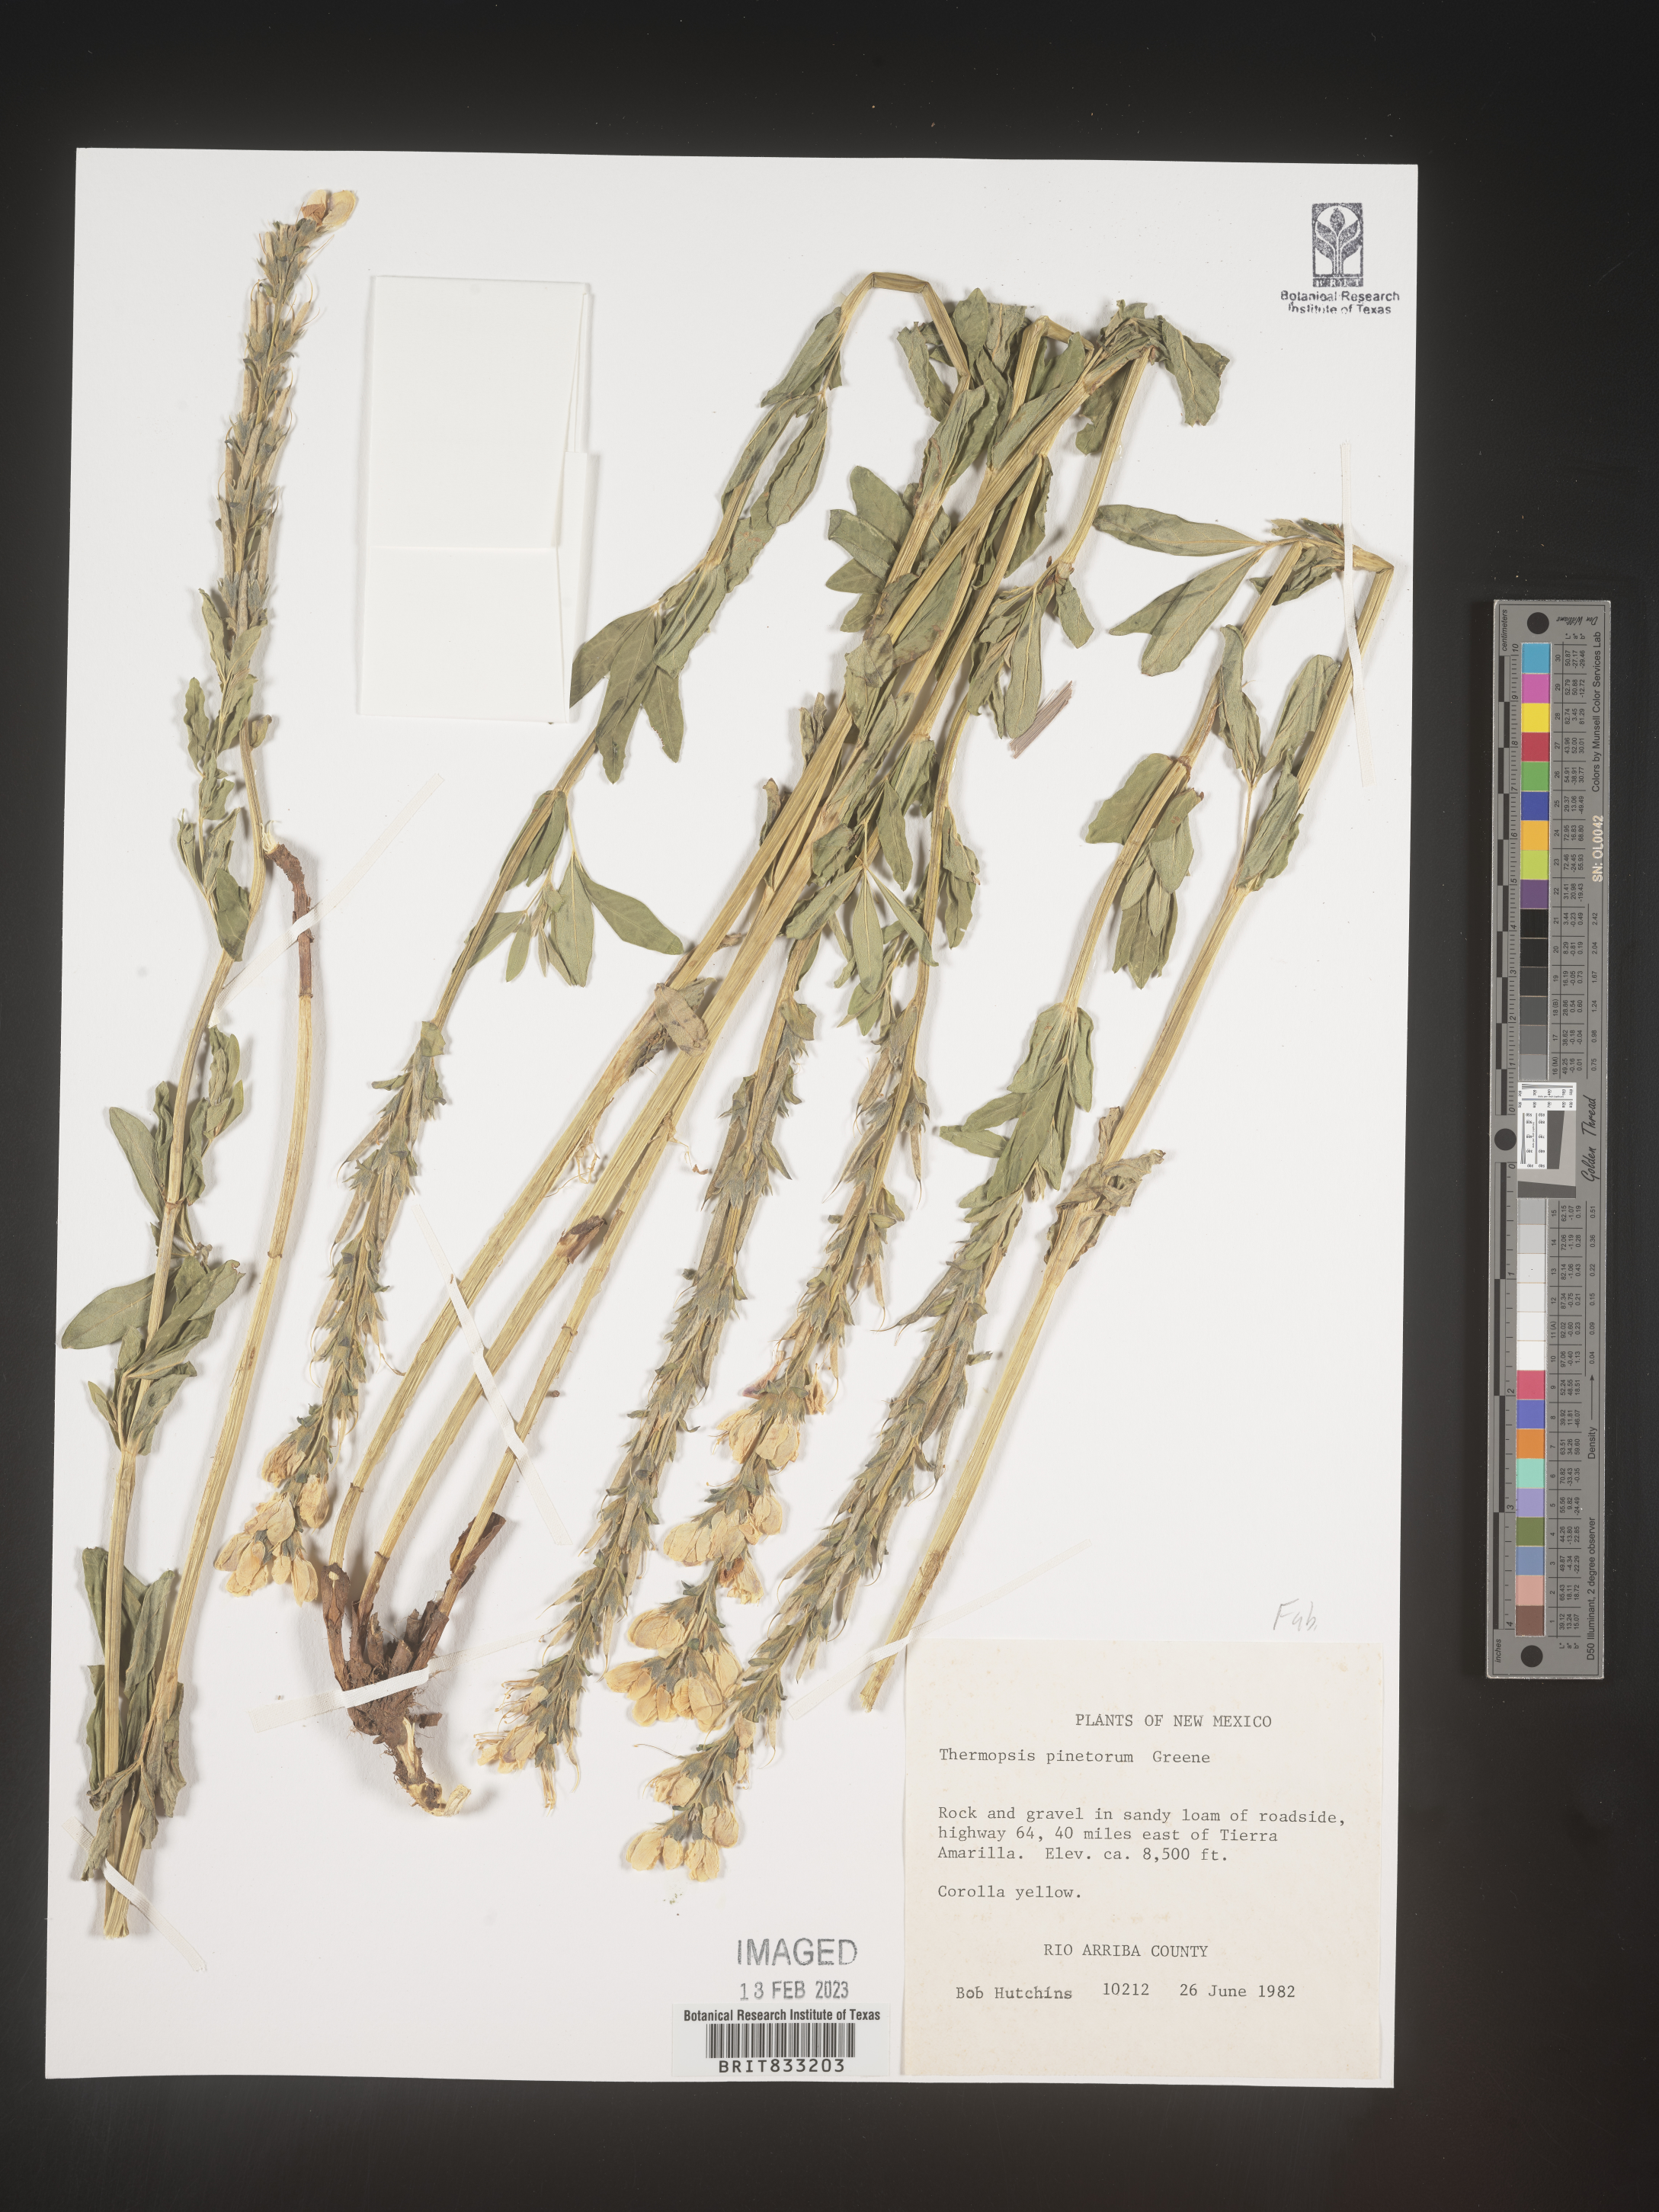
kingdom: Plantae
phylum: Tracheophyta
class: Magnoliopsida
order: Fabales
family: Fabaceae
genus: Thermopsis
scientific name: Thermopsis rhombifolia
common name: Circle-pod-pea
